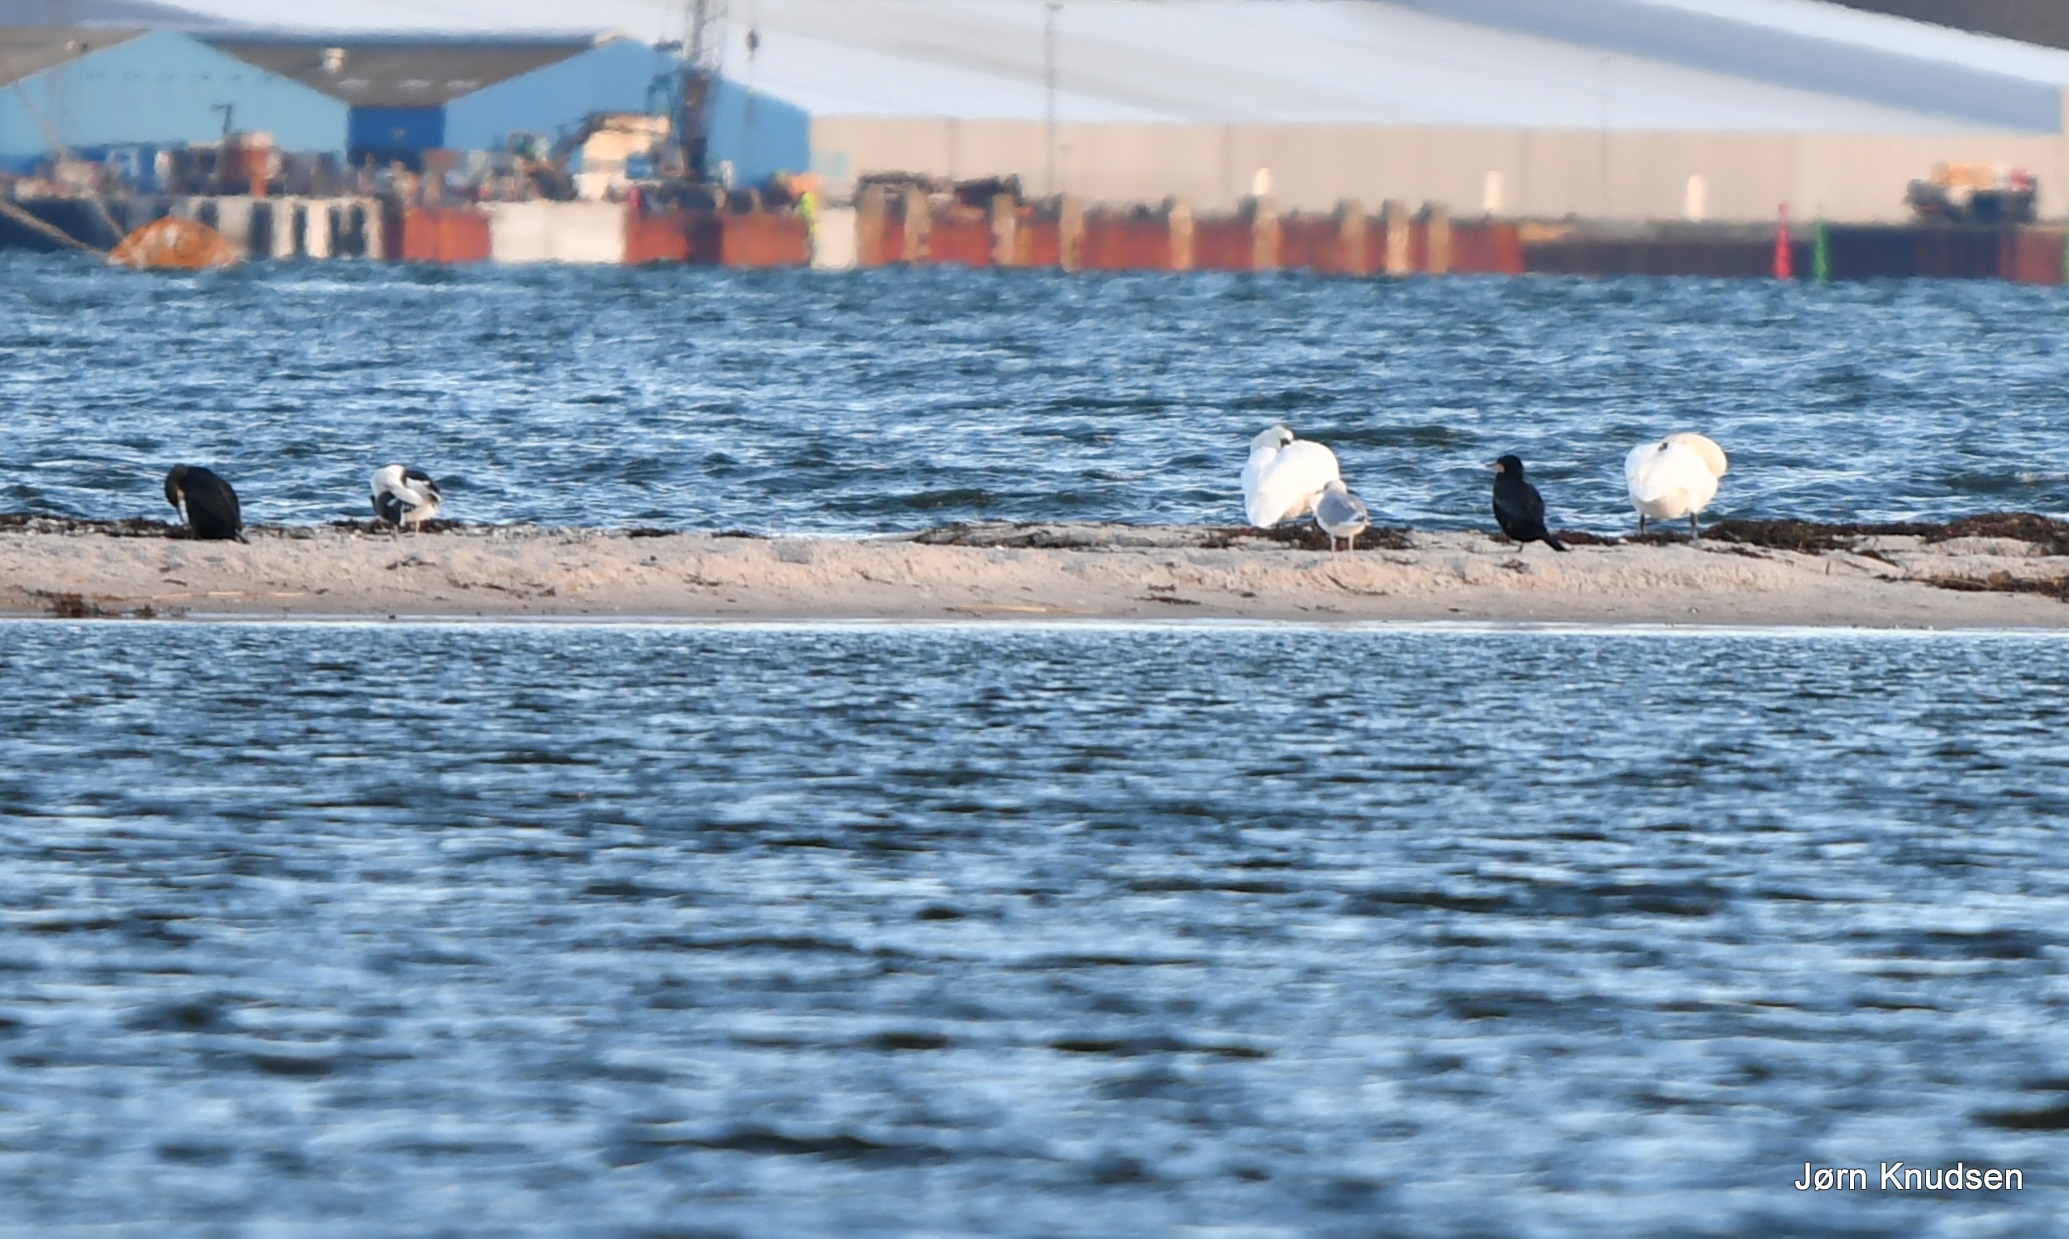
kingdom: Animalia
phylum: Chordata
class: Aves
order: Suliformes
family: Phalacrocoracidae
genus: Phalacrocorax
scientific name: Phalacrocorax carbo
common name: Skarv
